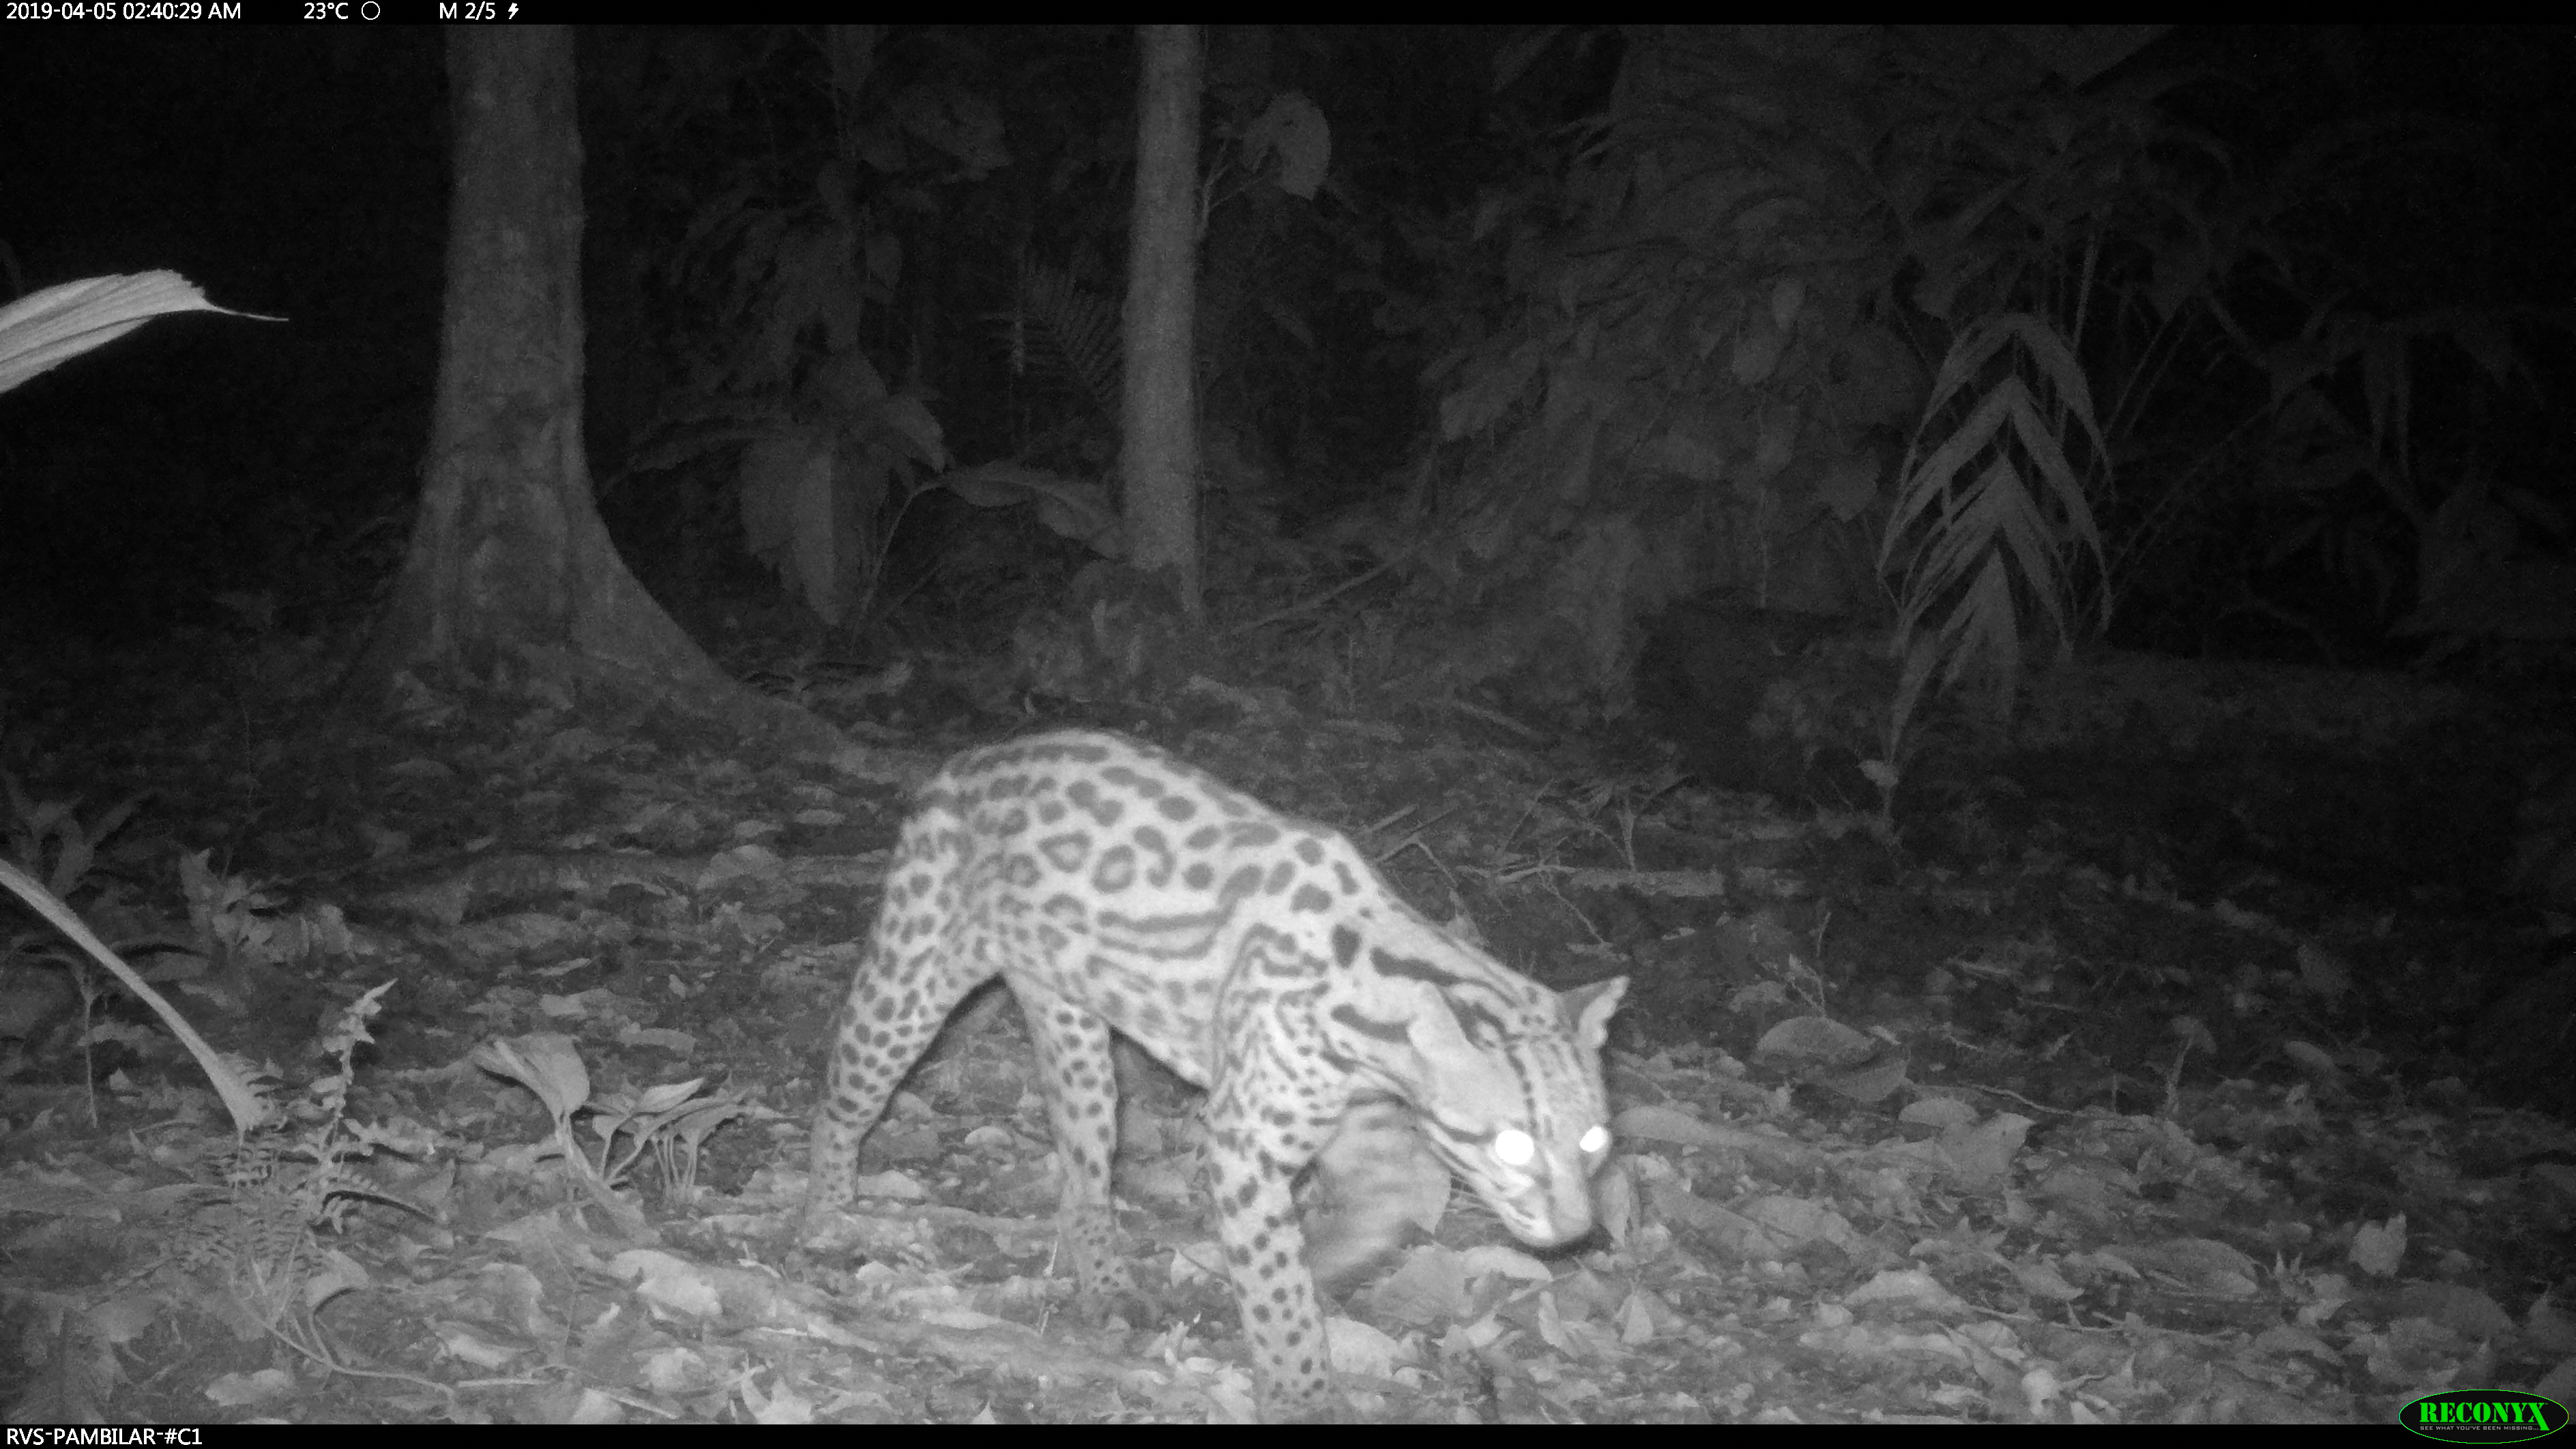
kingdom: Animalia
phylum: Chordata
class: Mammalia
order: Carnivora
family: Felidae
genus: Leopardus
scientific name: Leopardus pardalis
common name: Ocelot
